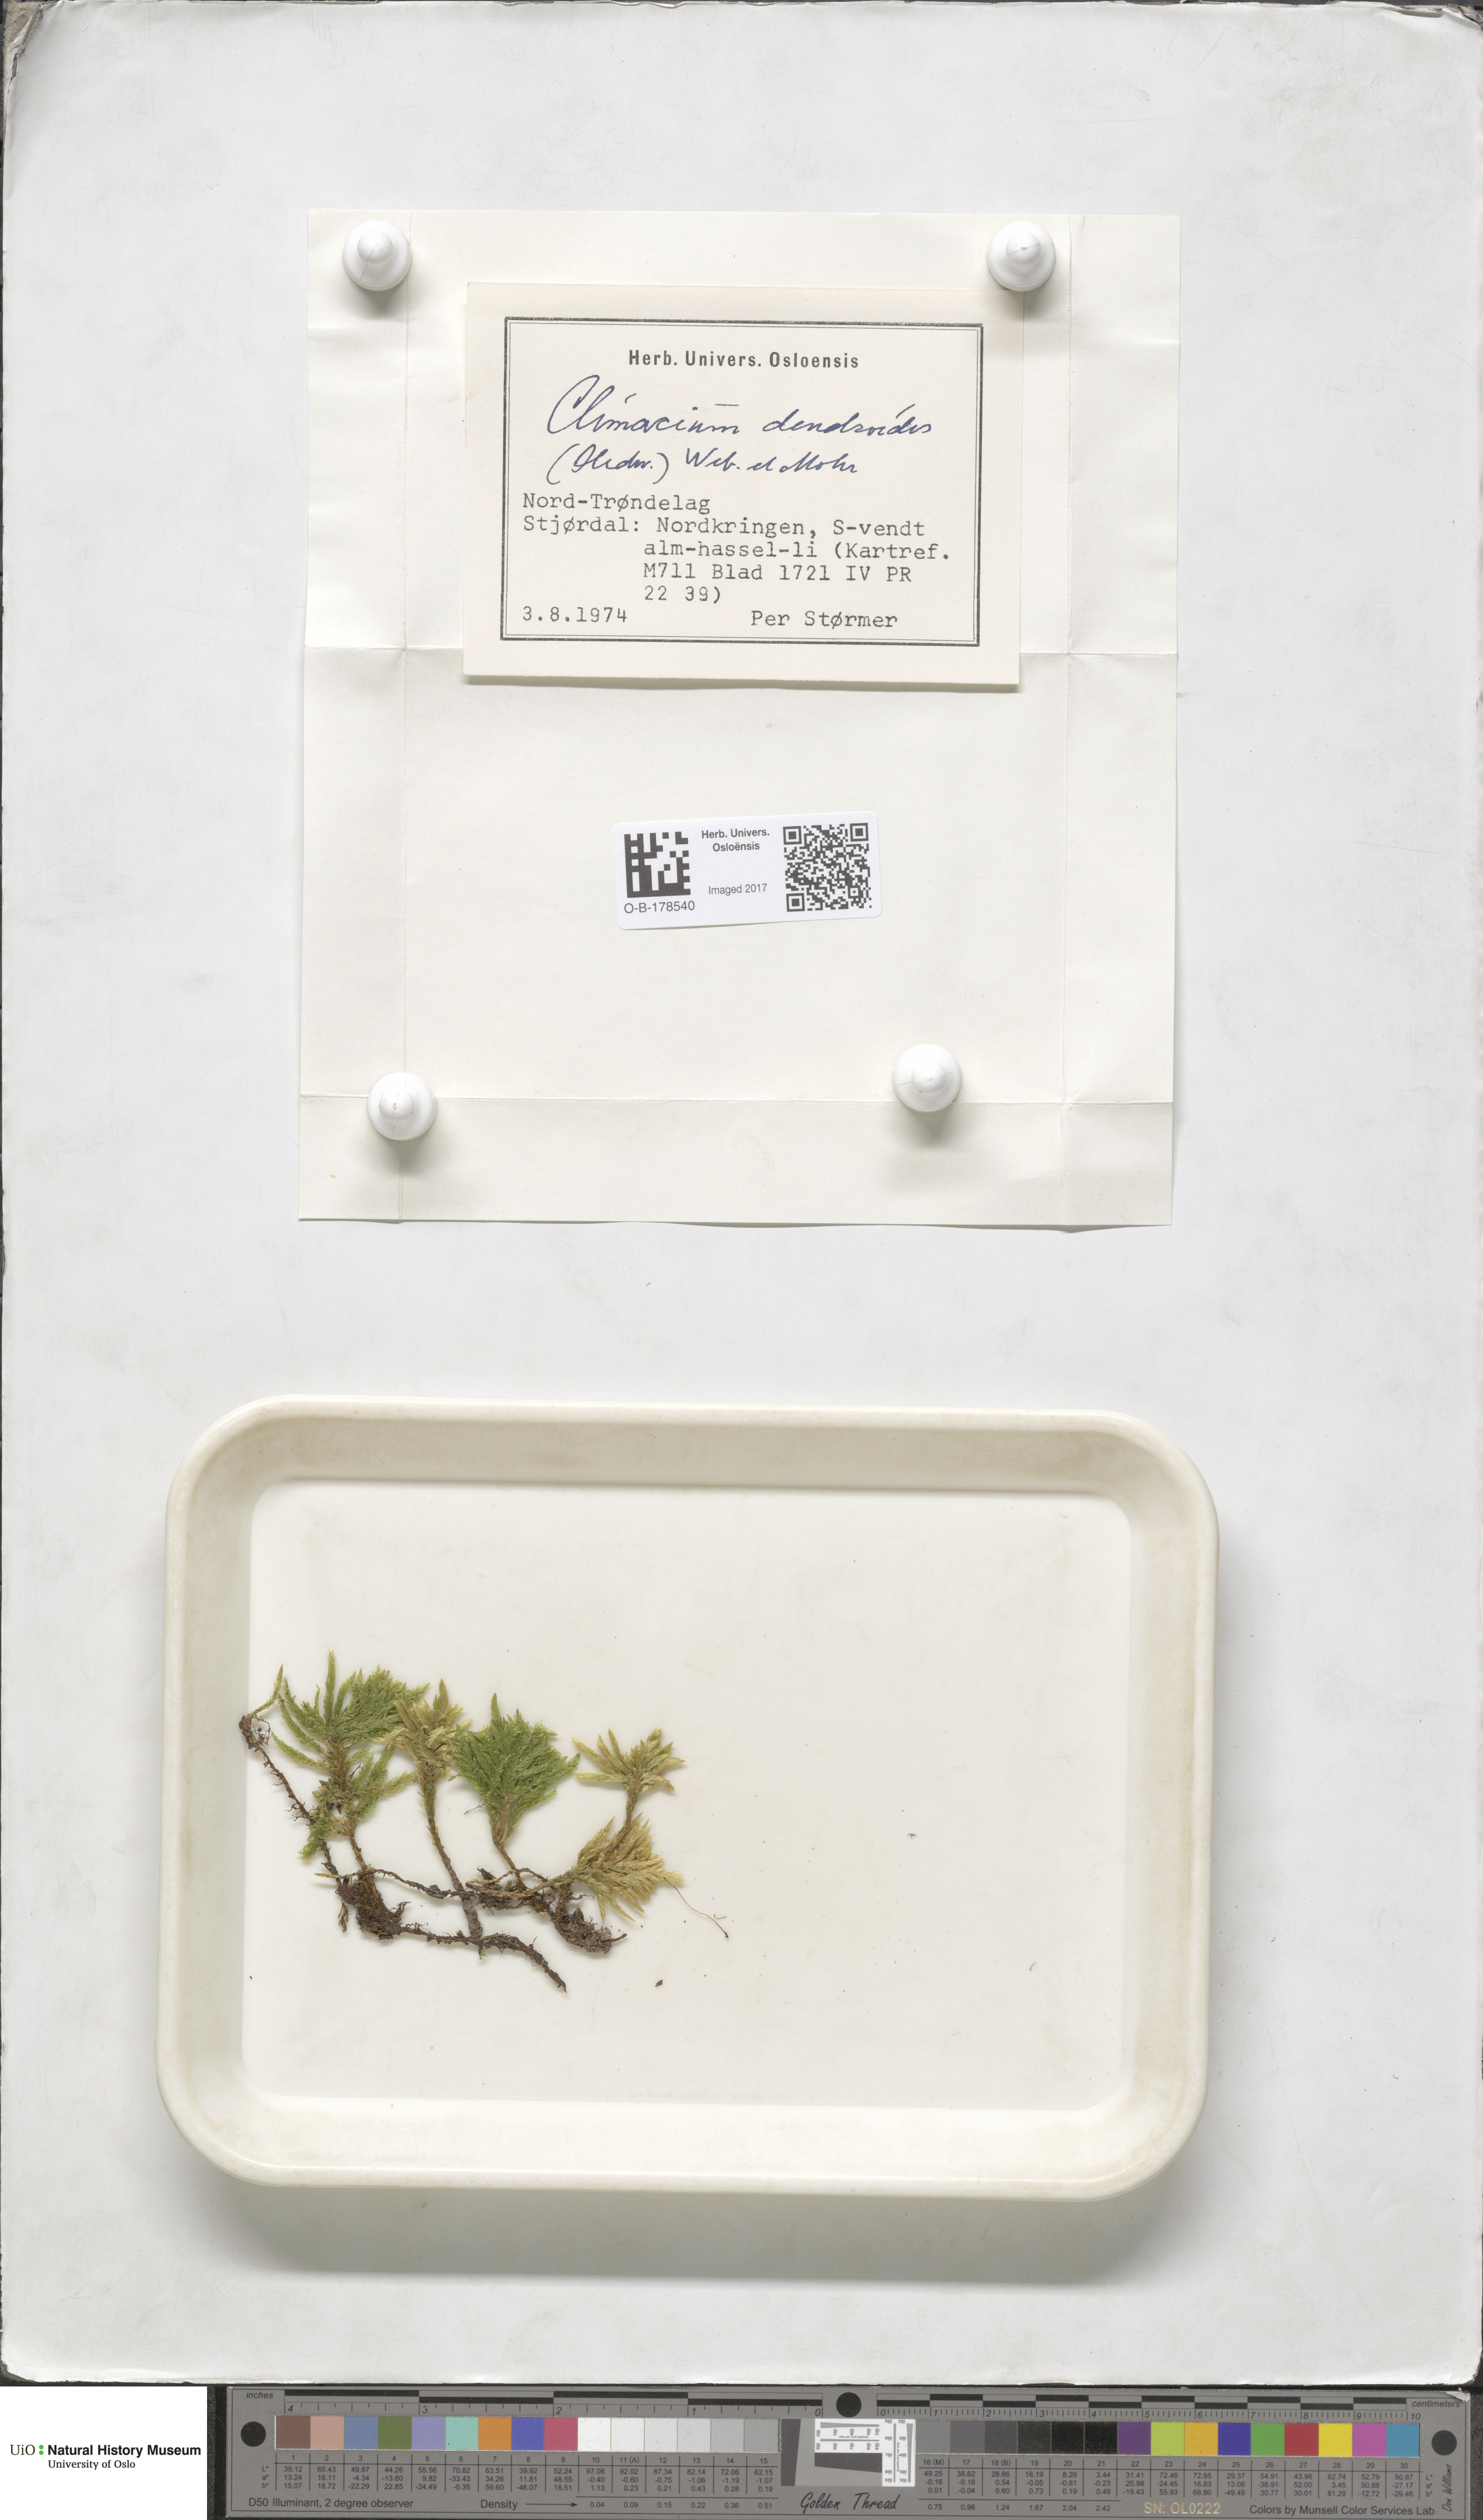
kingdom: Plantae
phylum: Bryophyta
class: Bryopsida
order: Hypnales
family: Climaciaceae
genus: Climacium
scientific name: Climacium dendroides
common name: Northern tree moss
